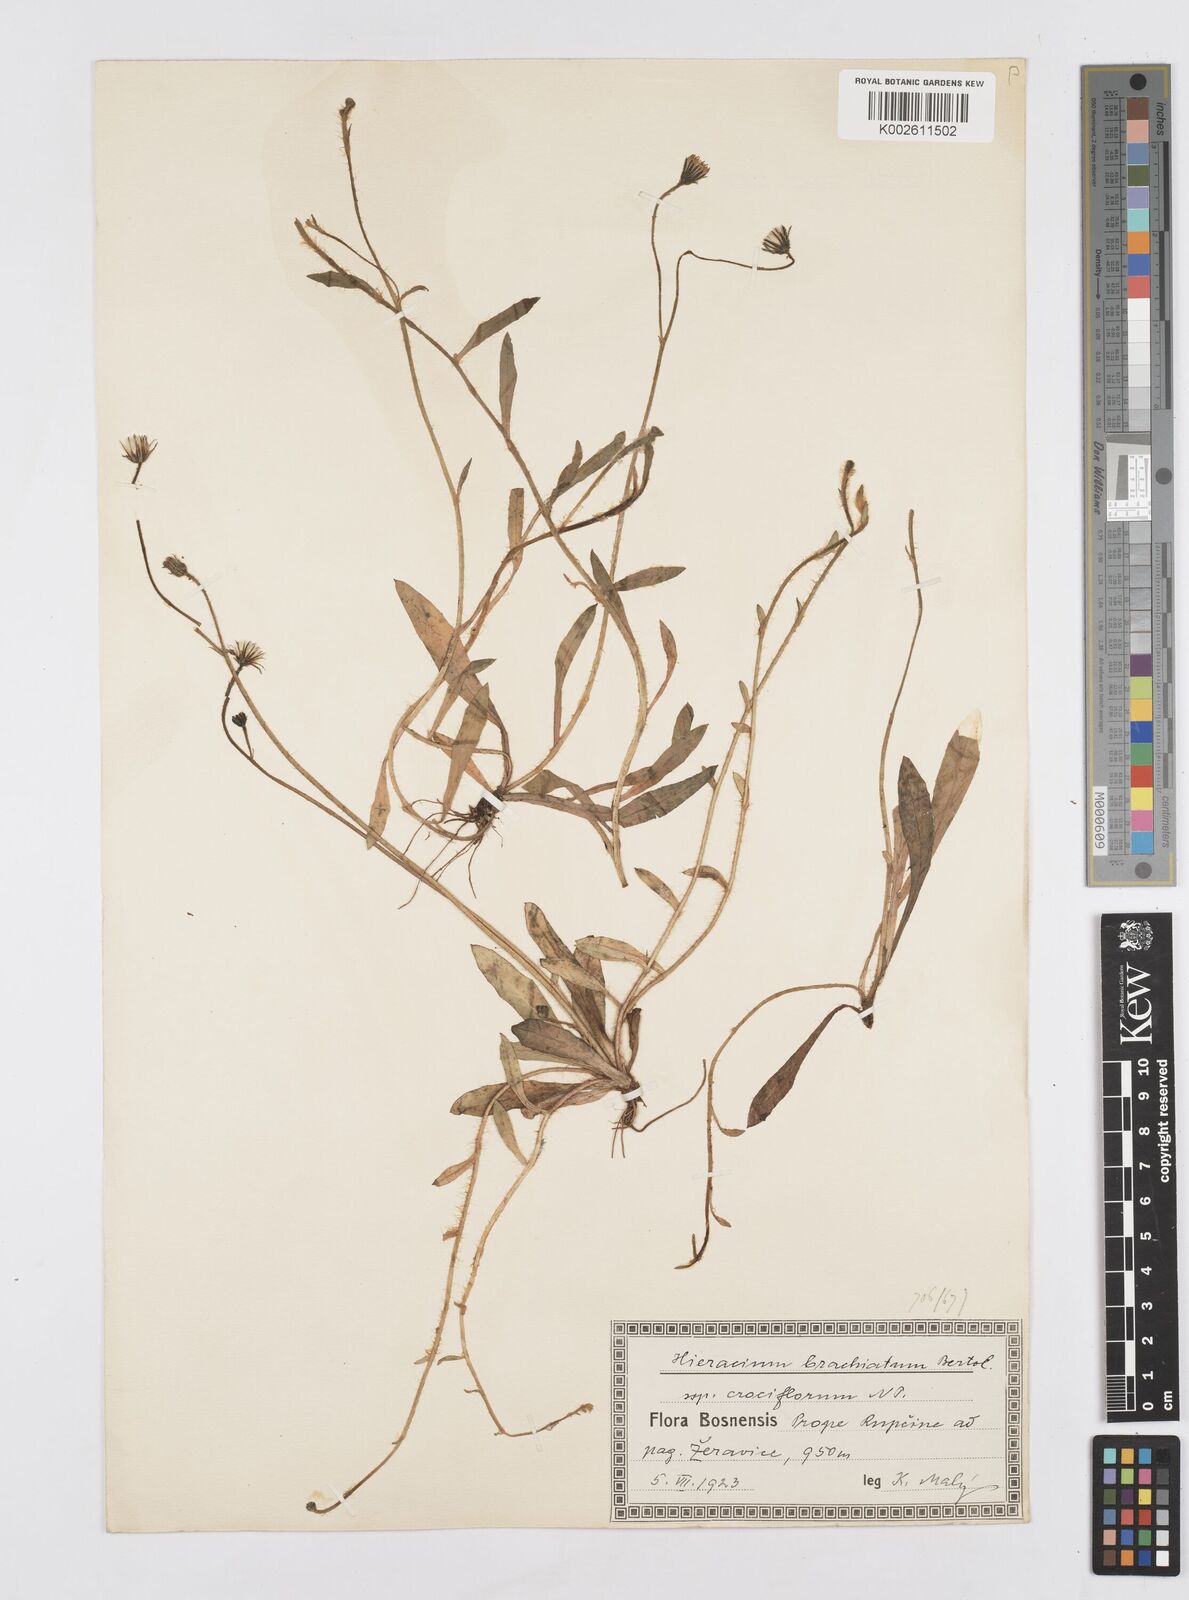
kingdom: Plantae
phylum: Tracheophyta
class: Magnoliopsida
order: Asterales
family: Asteraceae
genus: Pilosella
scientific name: Pilosella acutifolia
